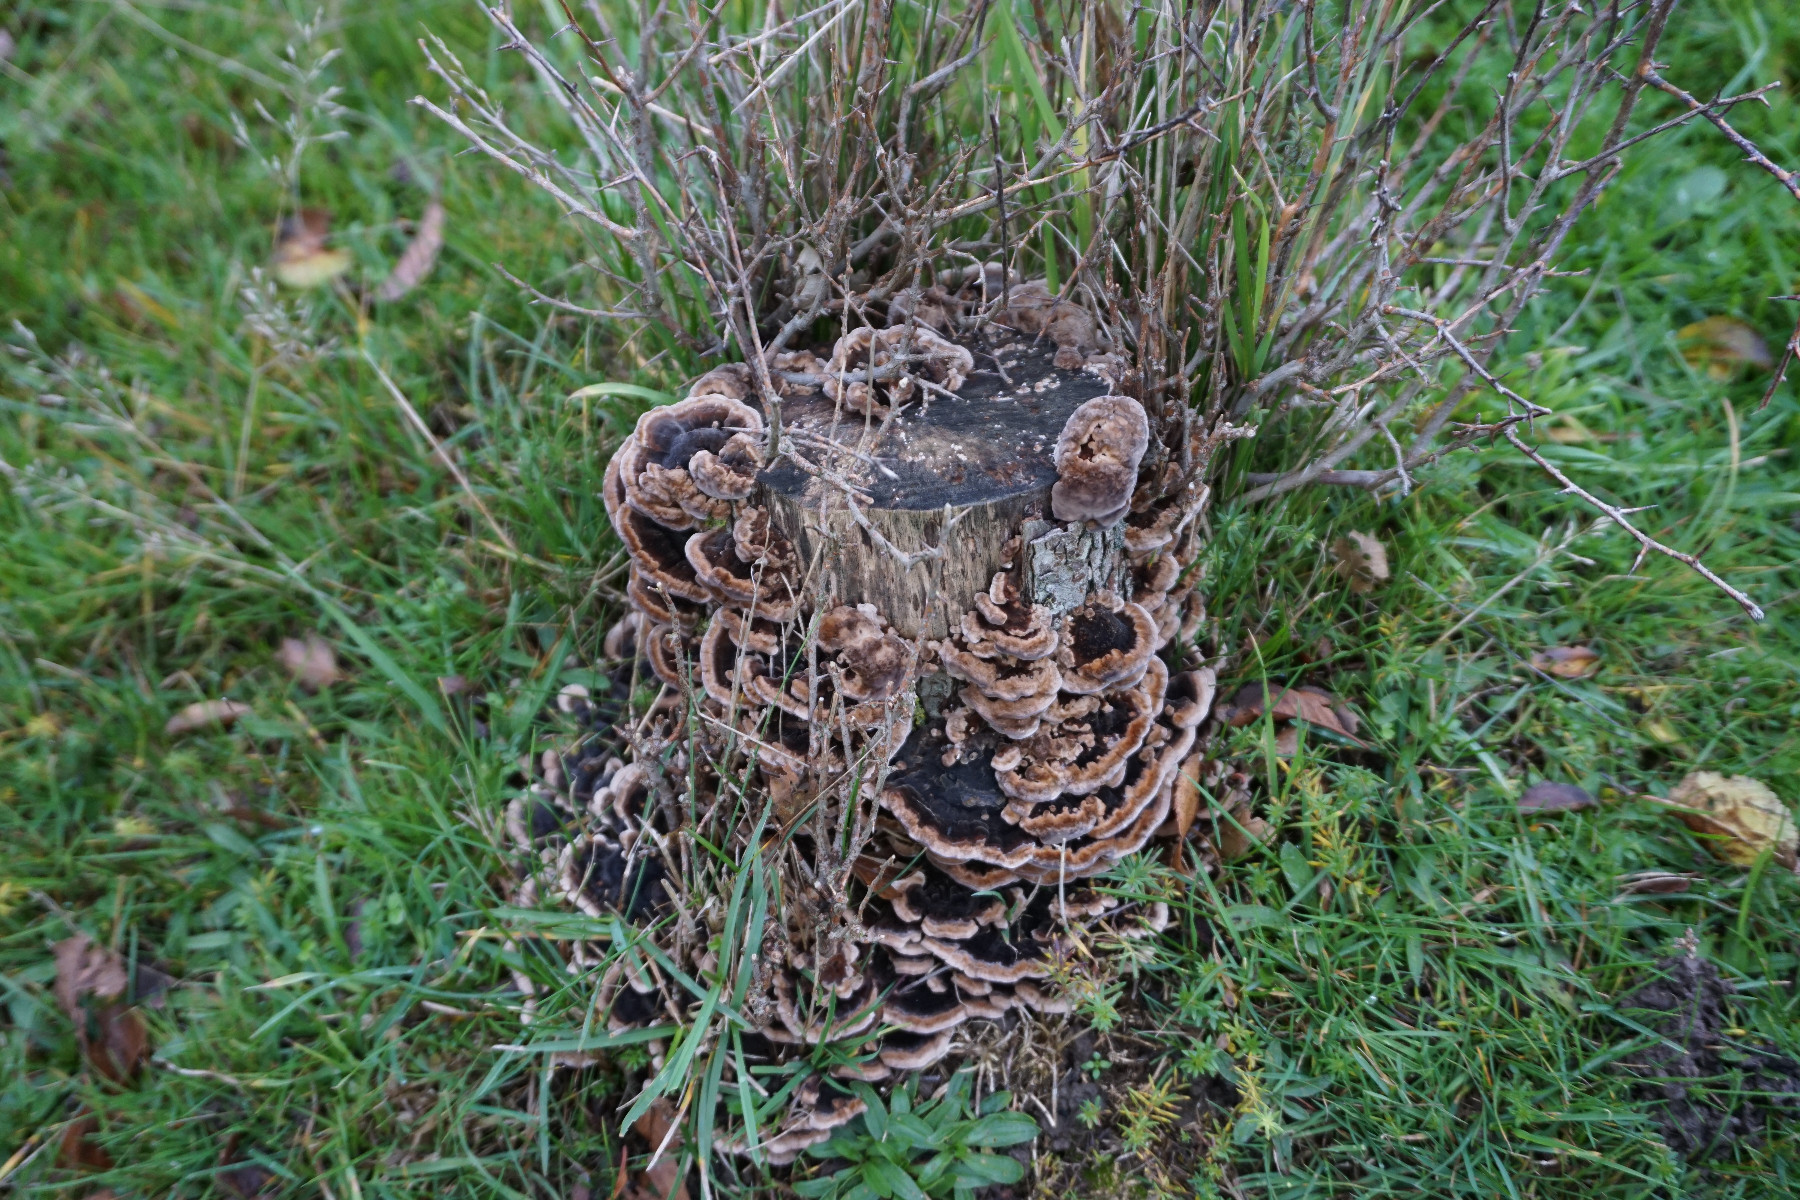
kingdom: Fungi
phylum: Basidiomycota
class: Agaricomycetes
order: Polyporales
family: Polyporaceae
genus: Trametes
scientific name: Trametes versicolor
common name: broget læderporesvamp
